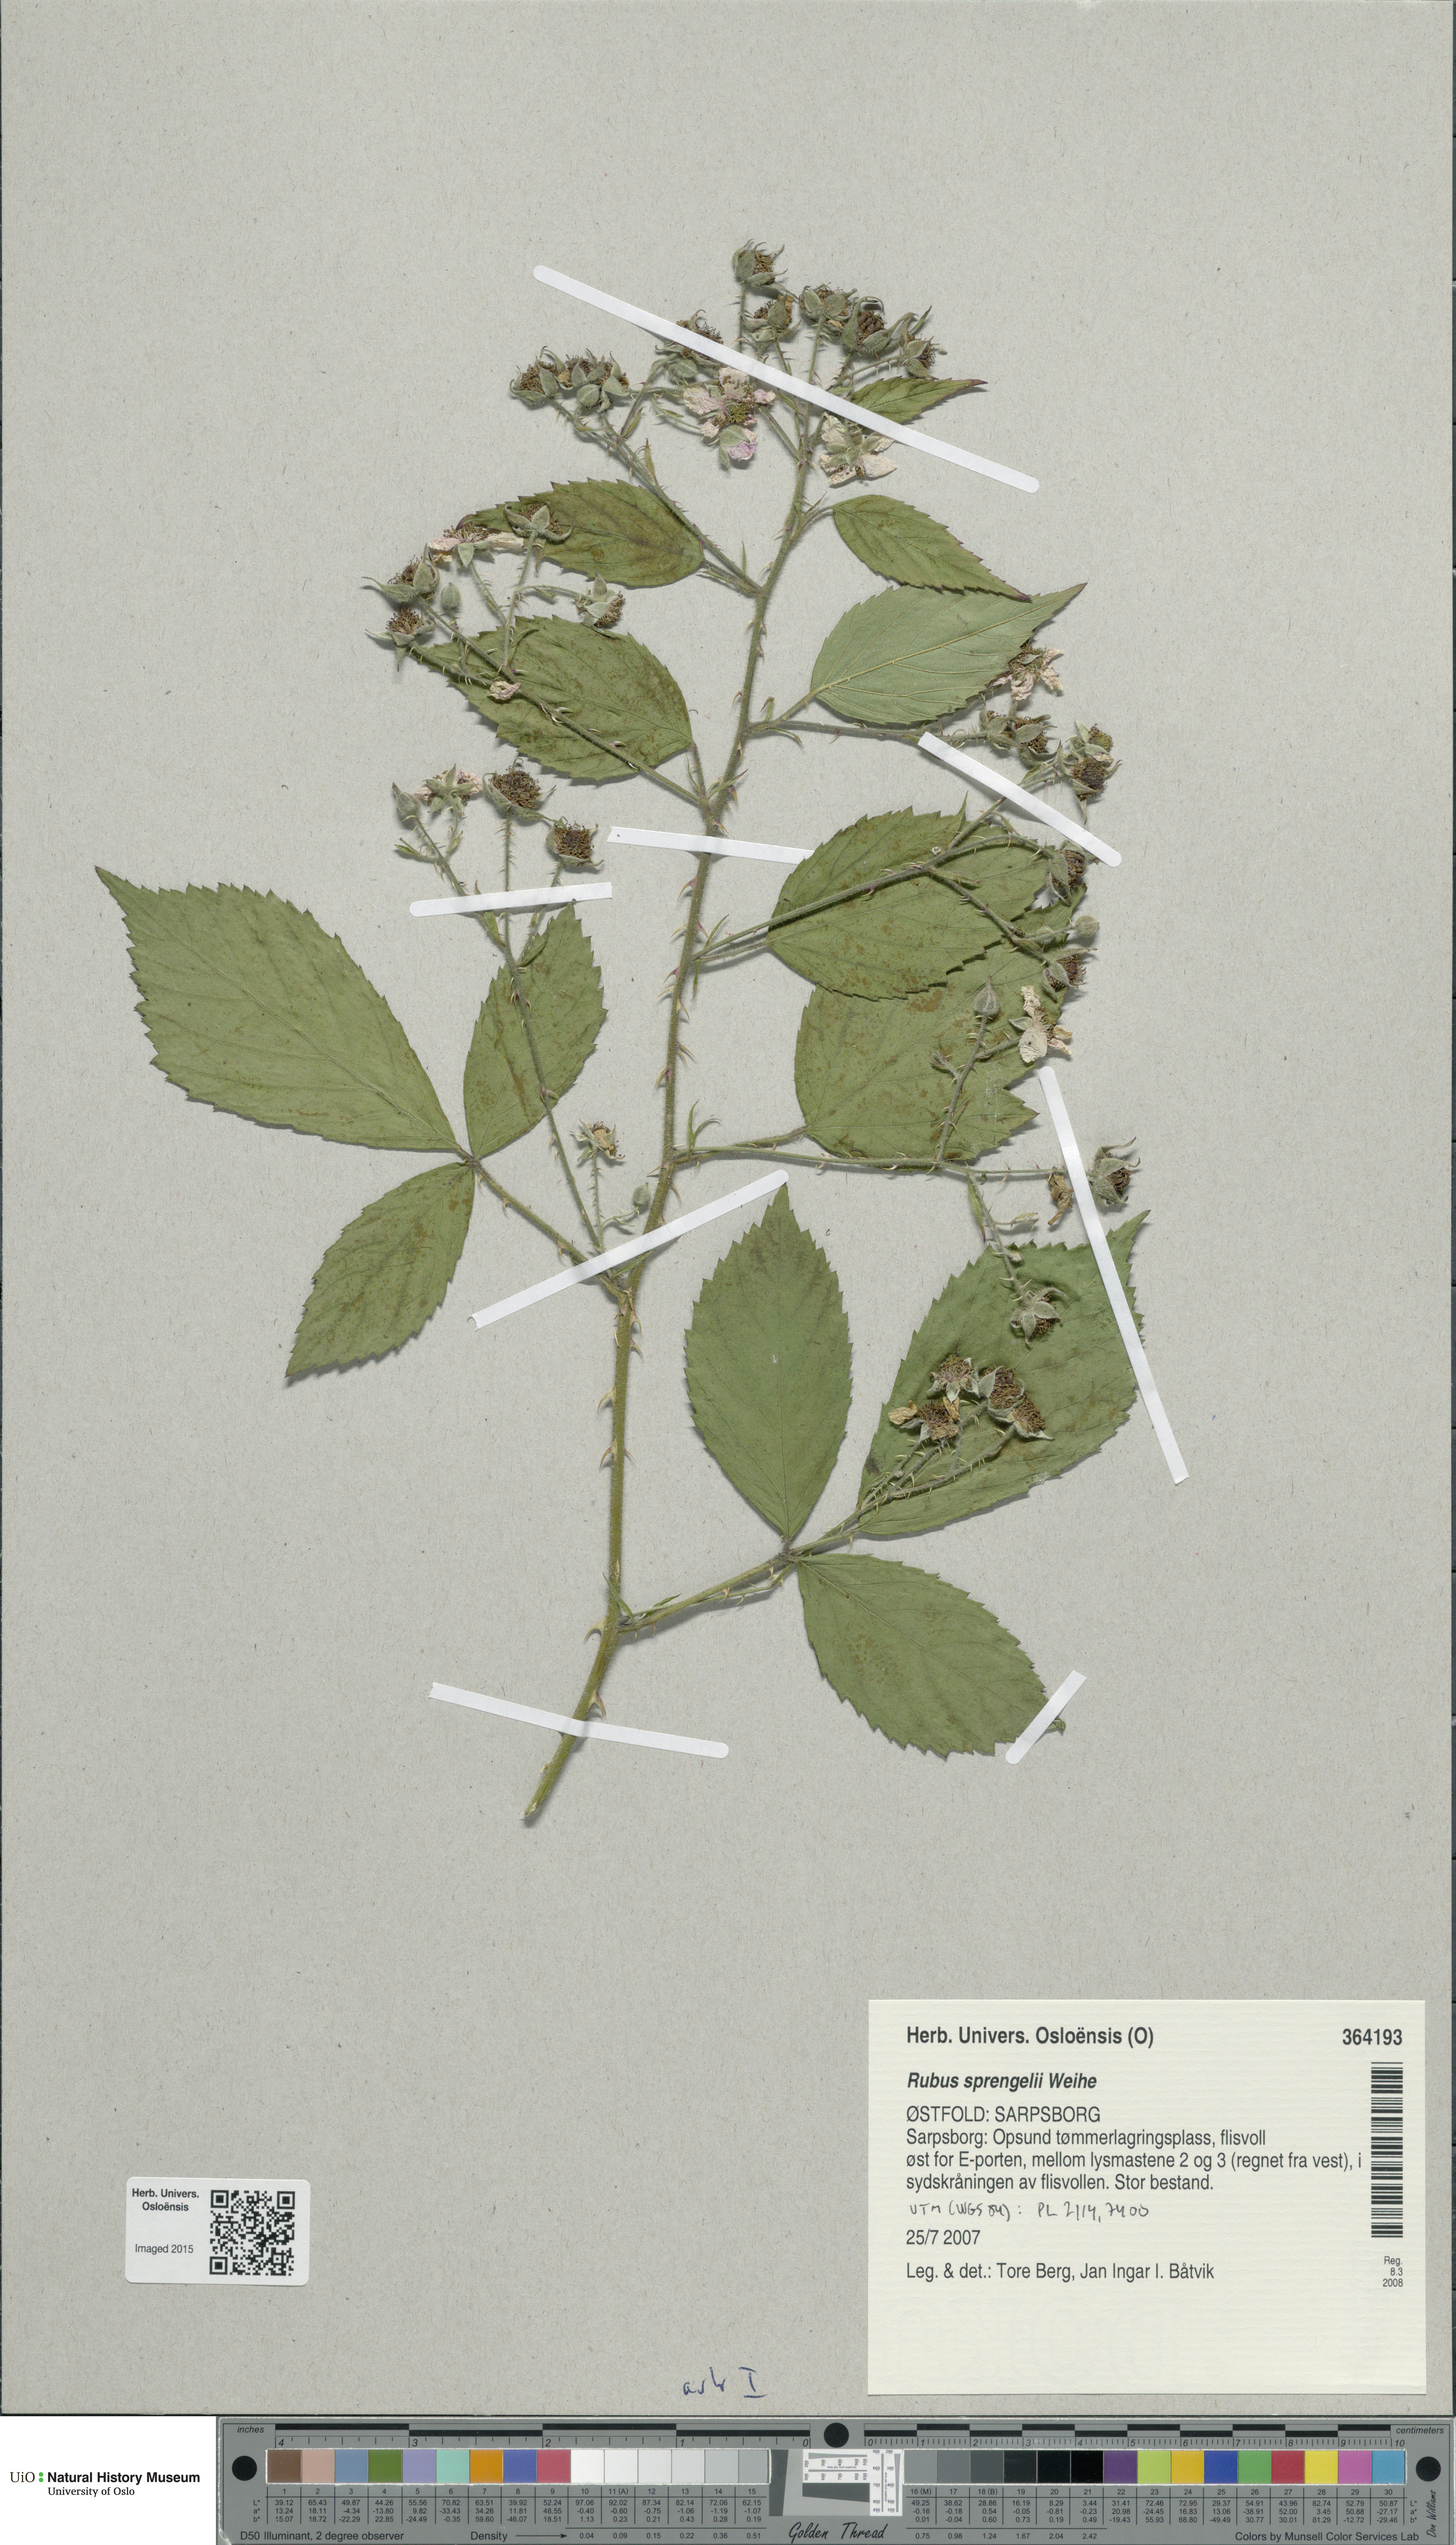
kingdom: Plantae
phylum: Tracheophyta
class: Magnoliopsida
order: Rosales
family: Rosaceae
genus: Rubus
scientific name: Rubus sprengelii
